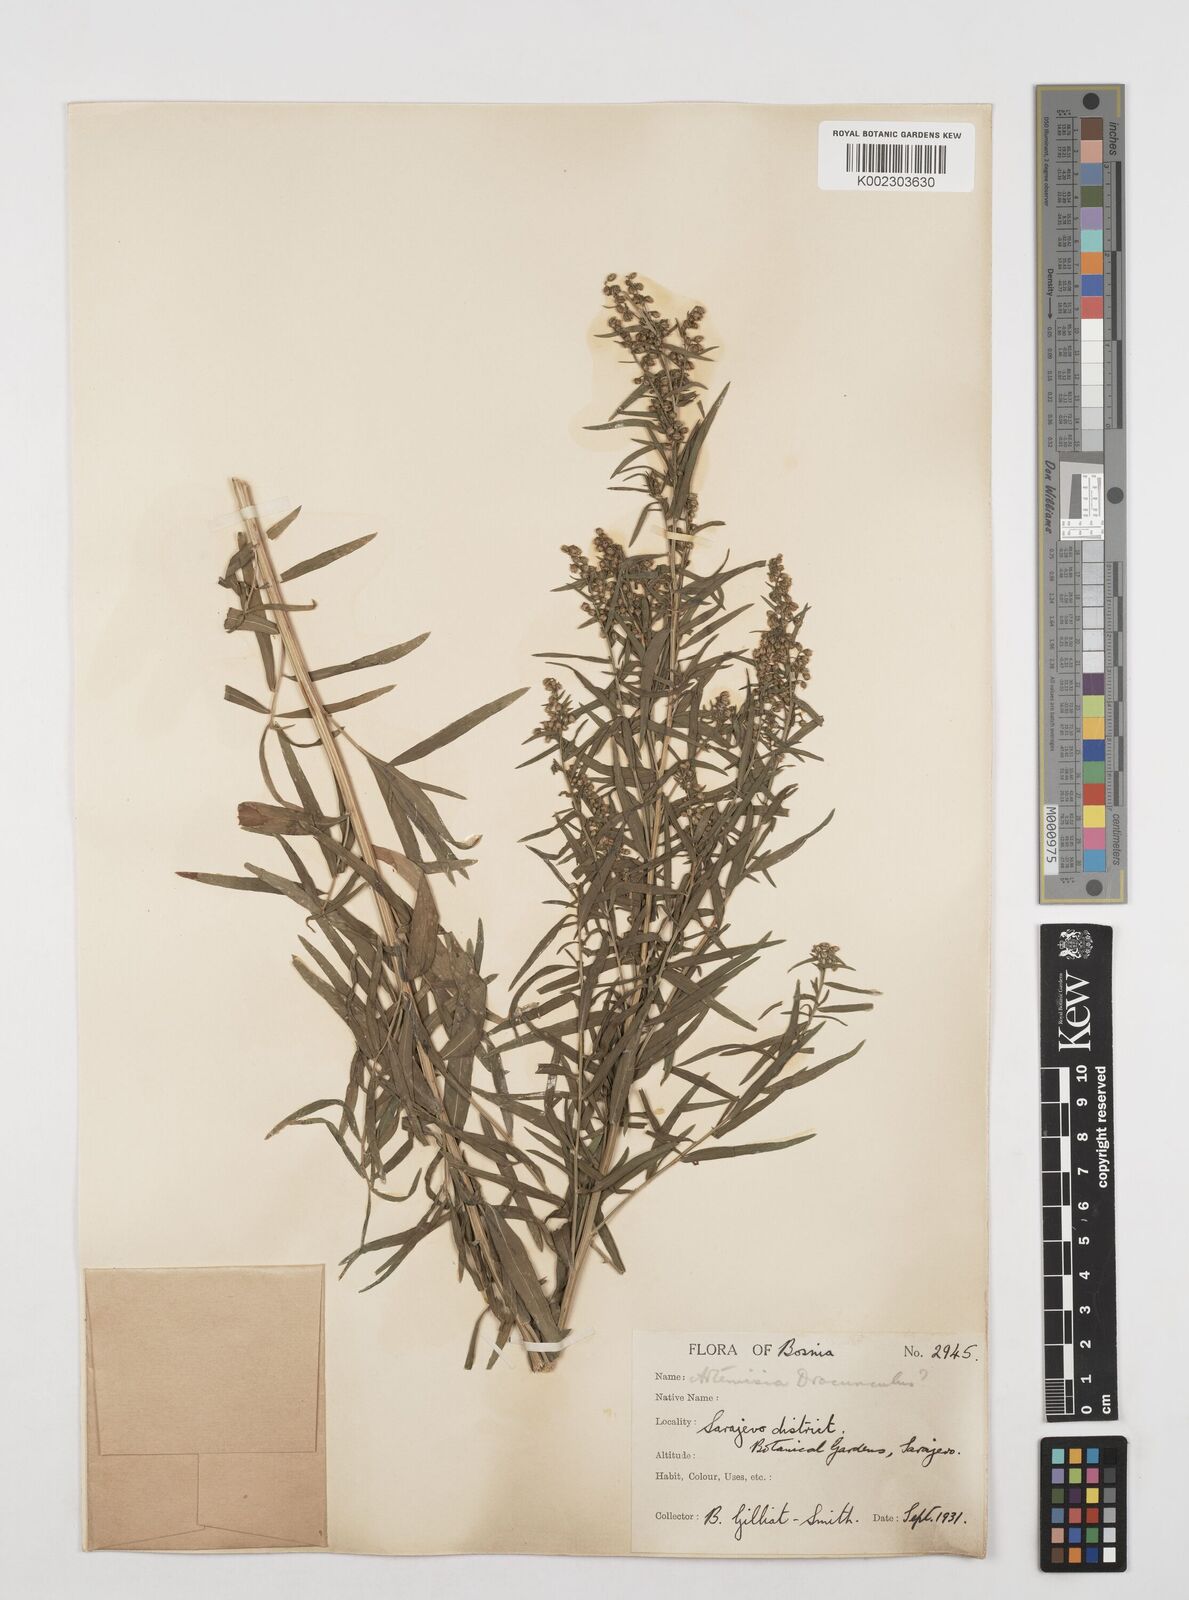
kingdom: Plantae
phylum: Tracheophyta
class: Magnoliopsida
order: Asterales
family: Asteraceae
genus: Artemisia
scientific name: Artemisia dracunculus
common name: Tarragon
